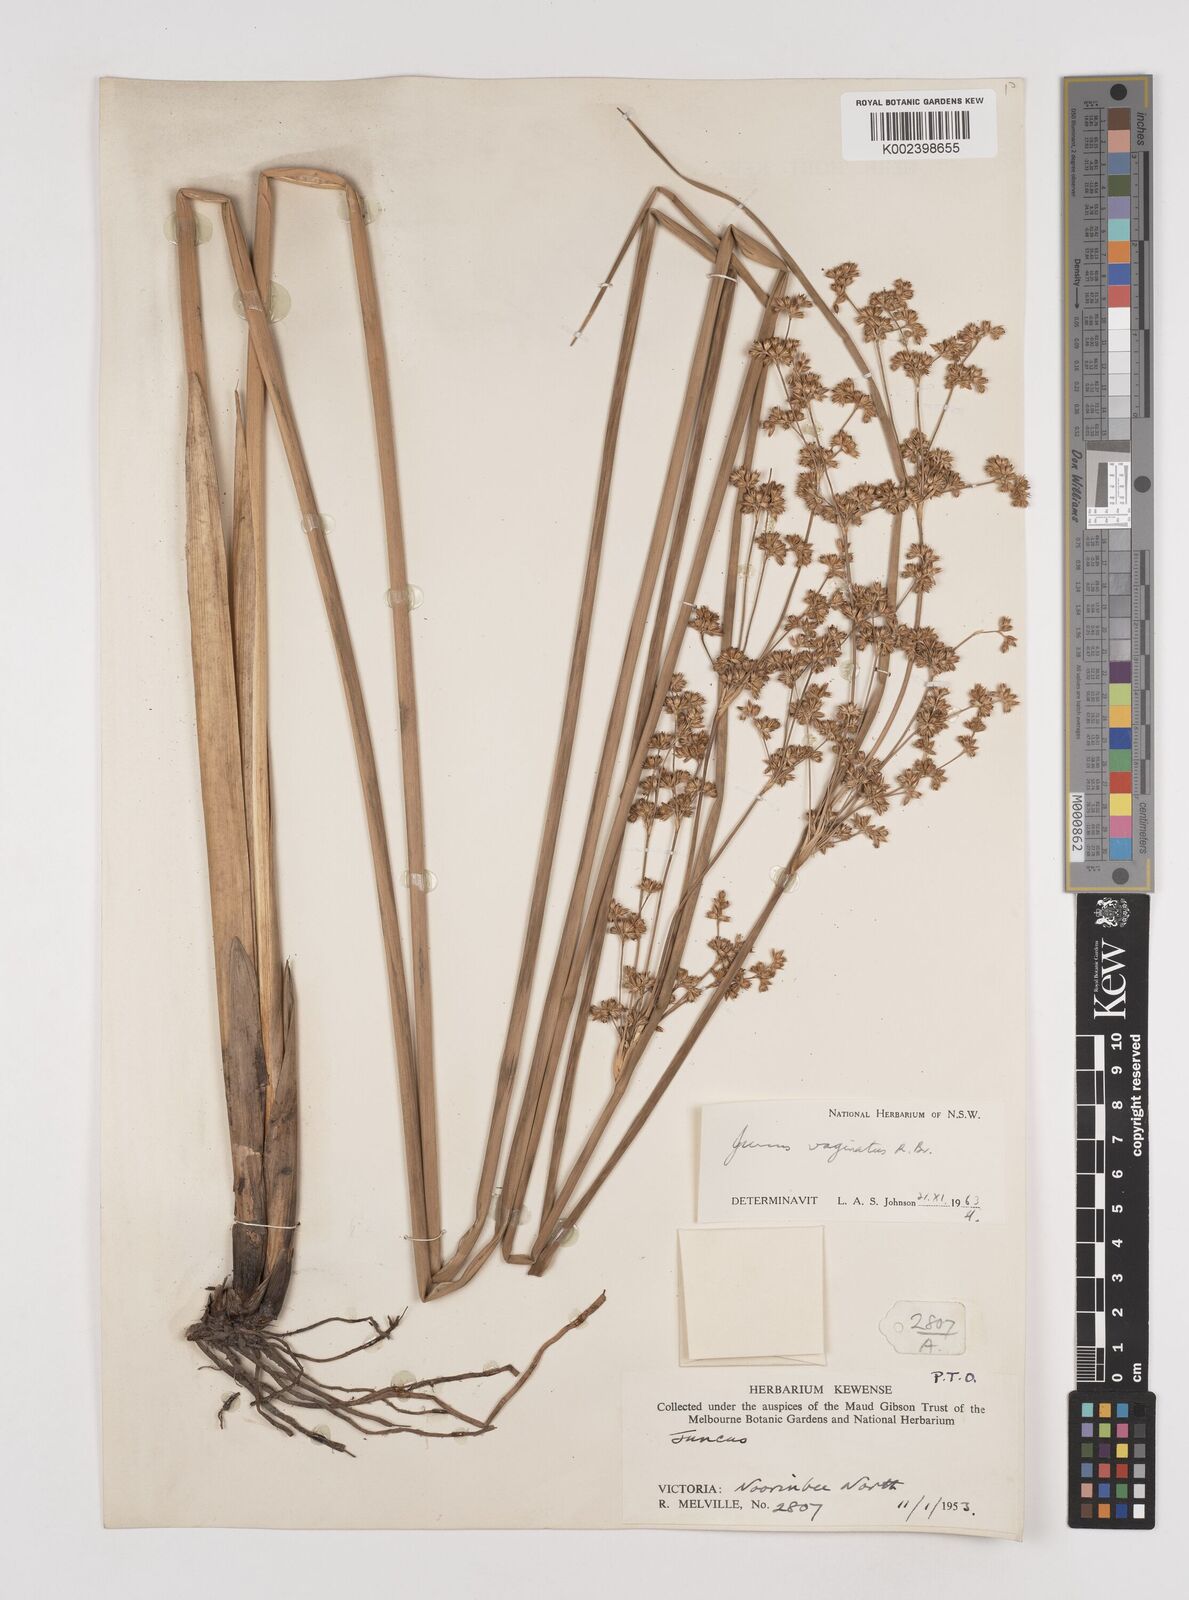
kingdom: Plantae
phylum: Tracheophyta
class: Liliopsida
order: Poales
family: Juncaceae
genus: Juncus
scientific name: Juncus vaginatus
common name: Clustered rush
